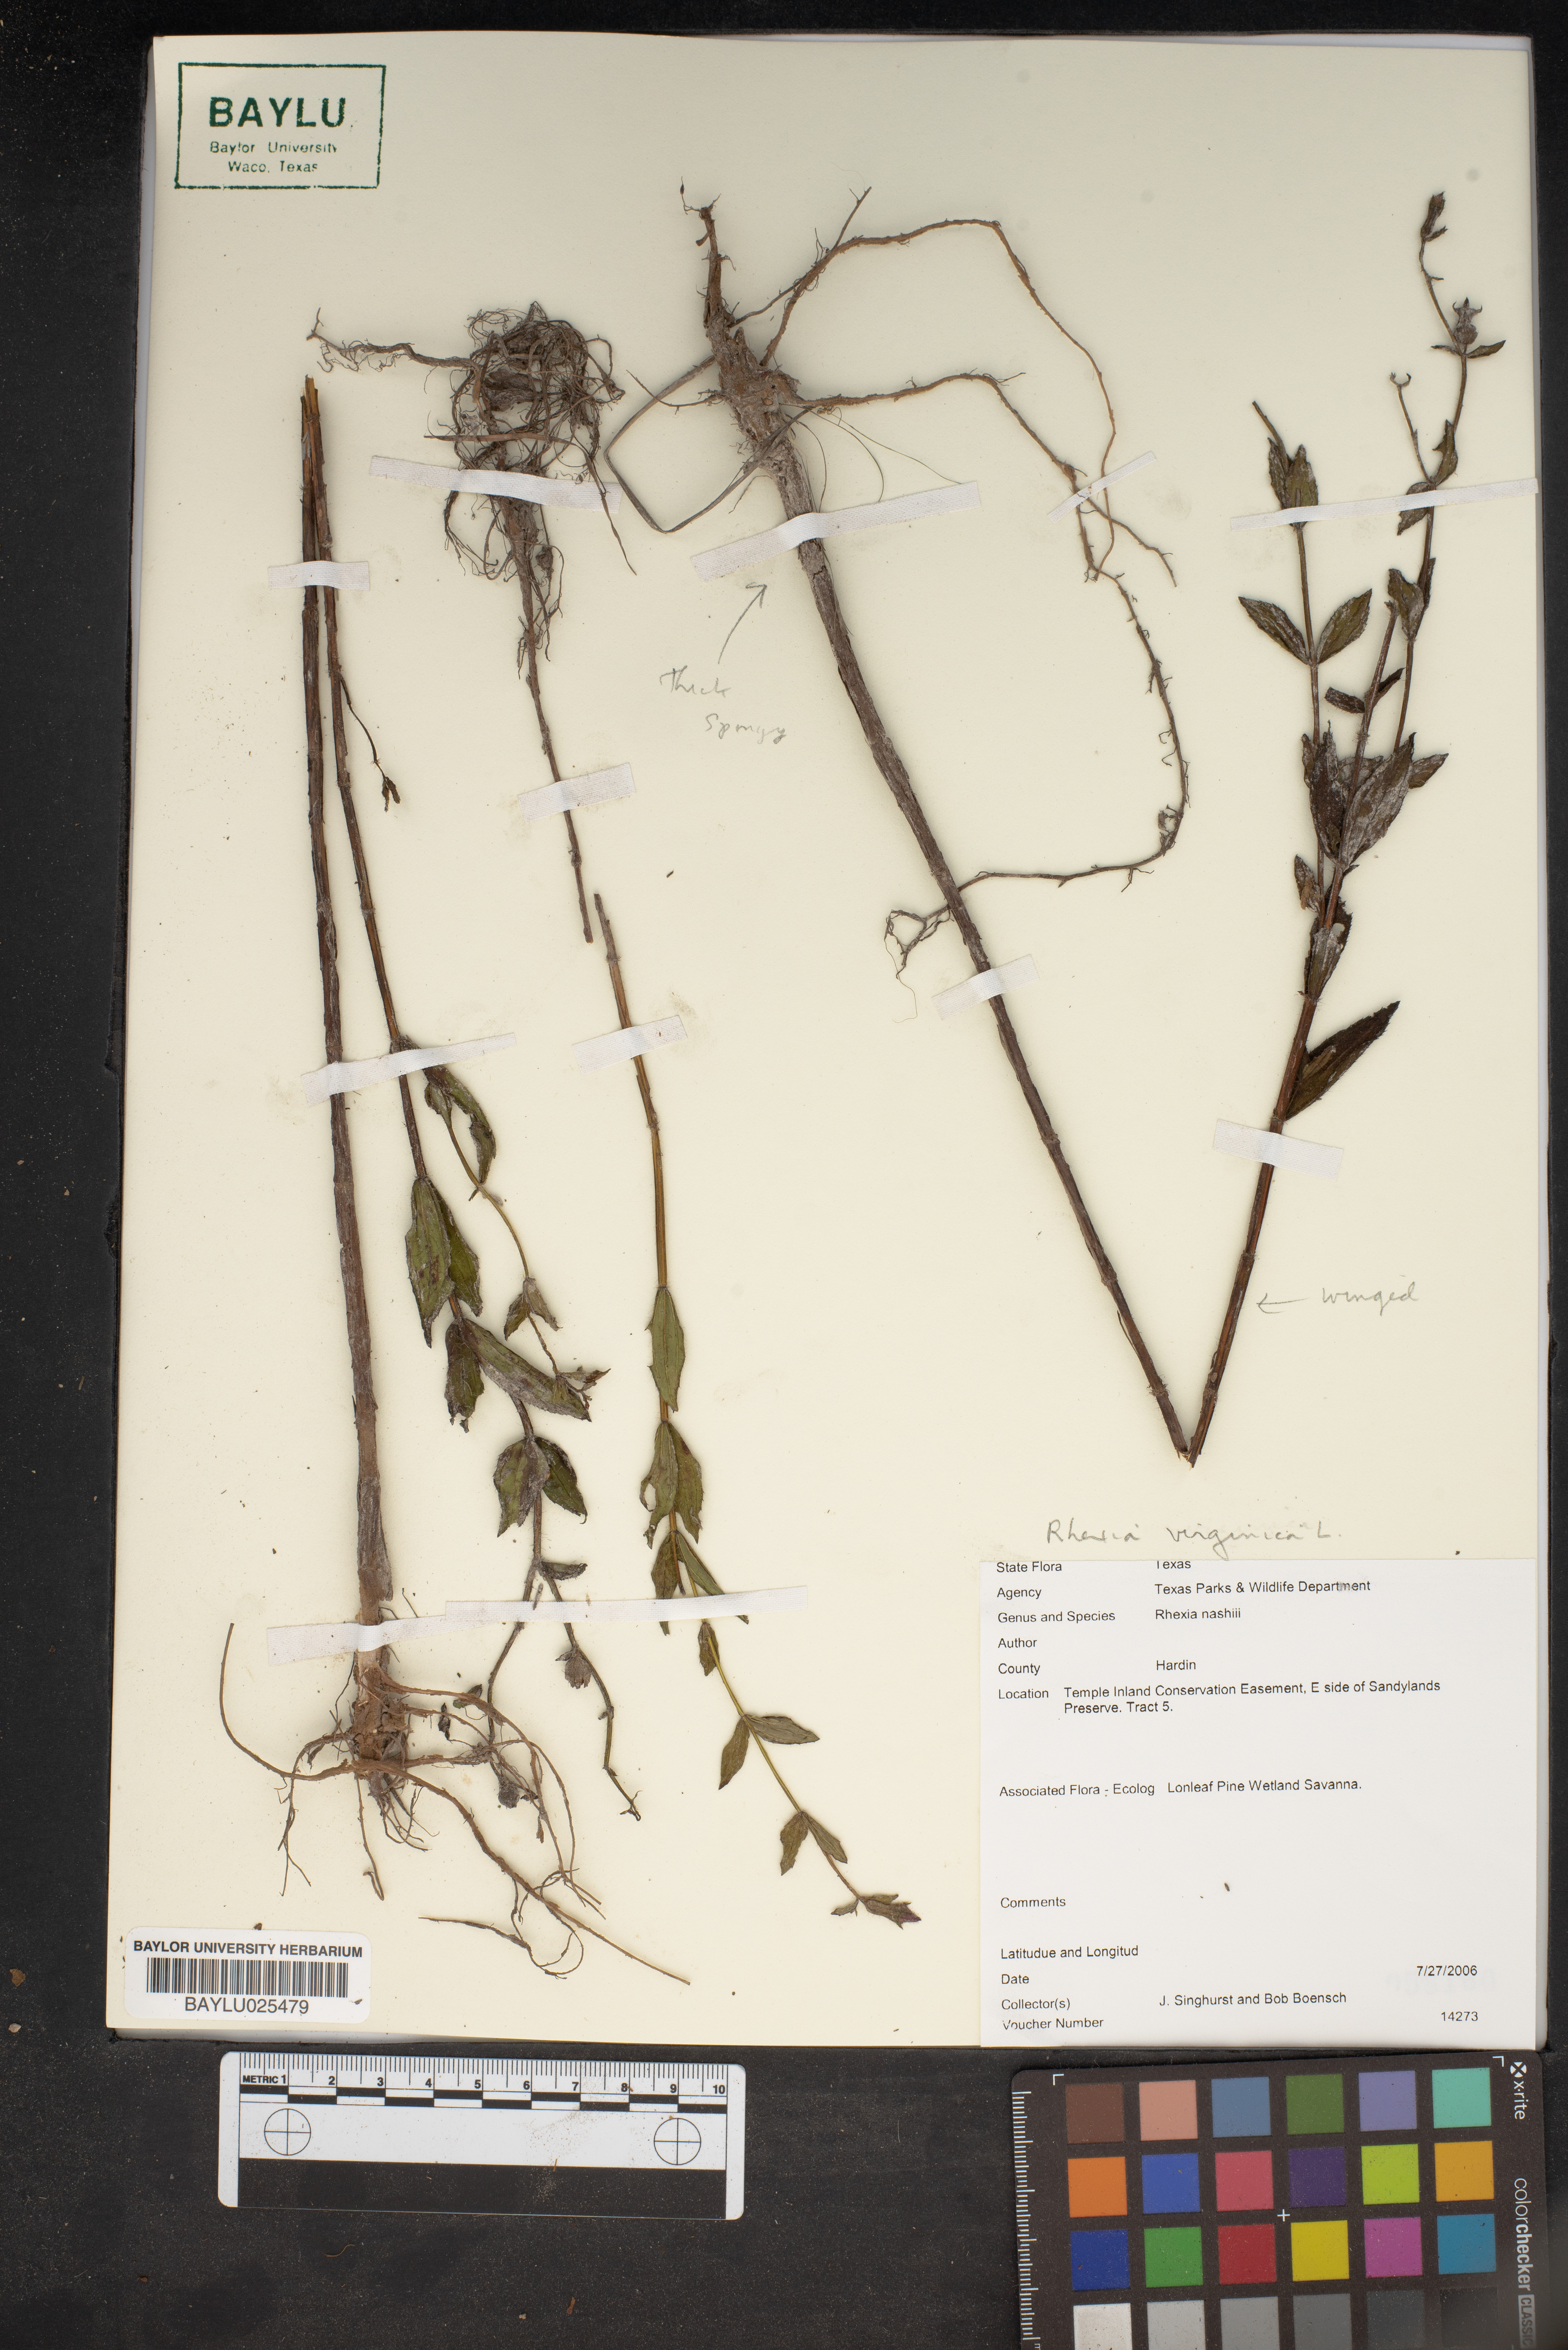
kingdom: Plantae
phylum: Tracheophyta
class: Magnoliopsida
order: Myrtales
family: Melastomataceae
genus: Rhexia
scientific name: Rhexia nashii
